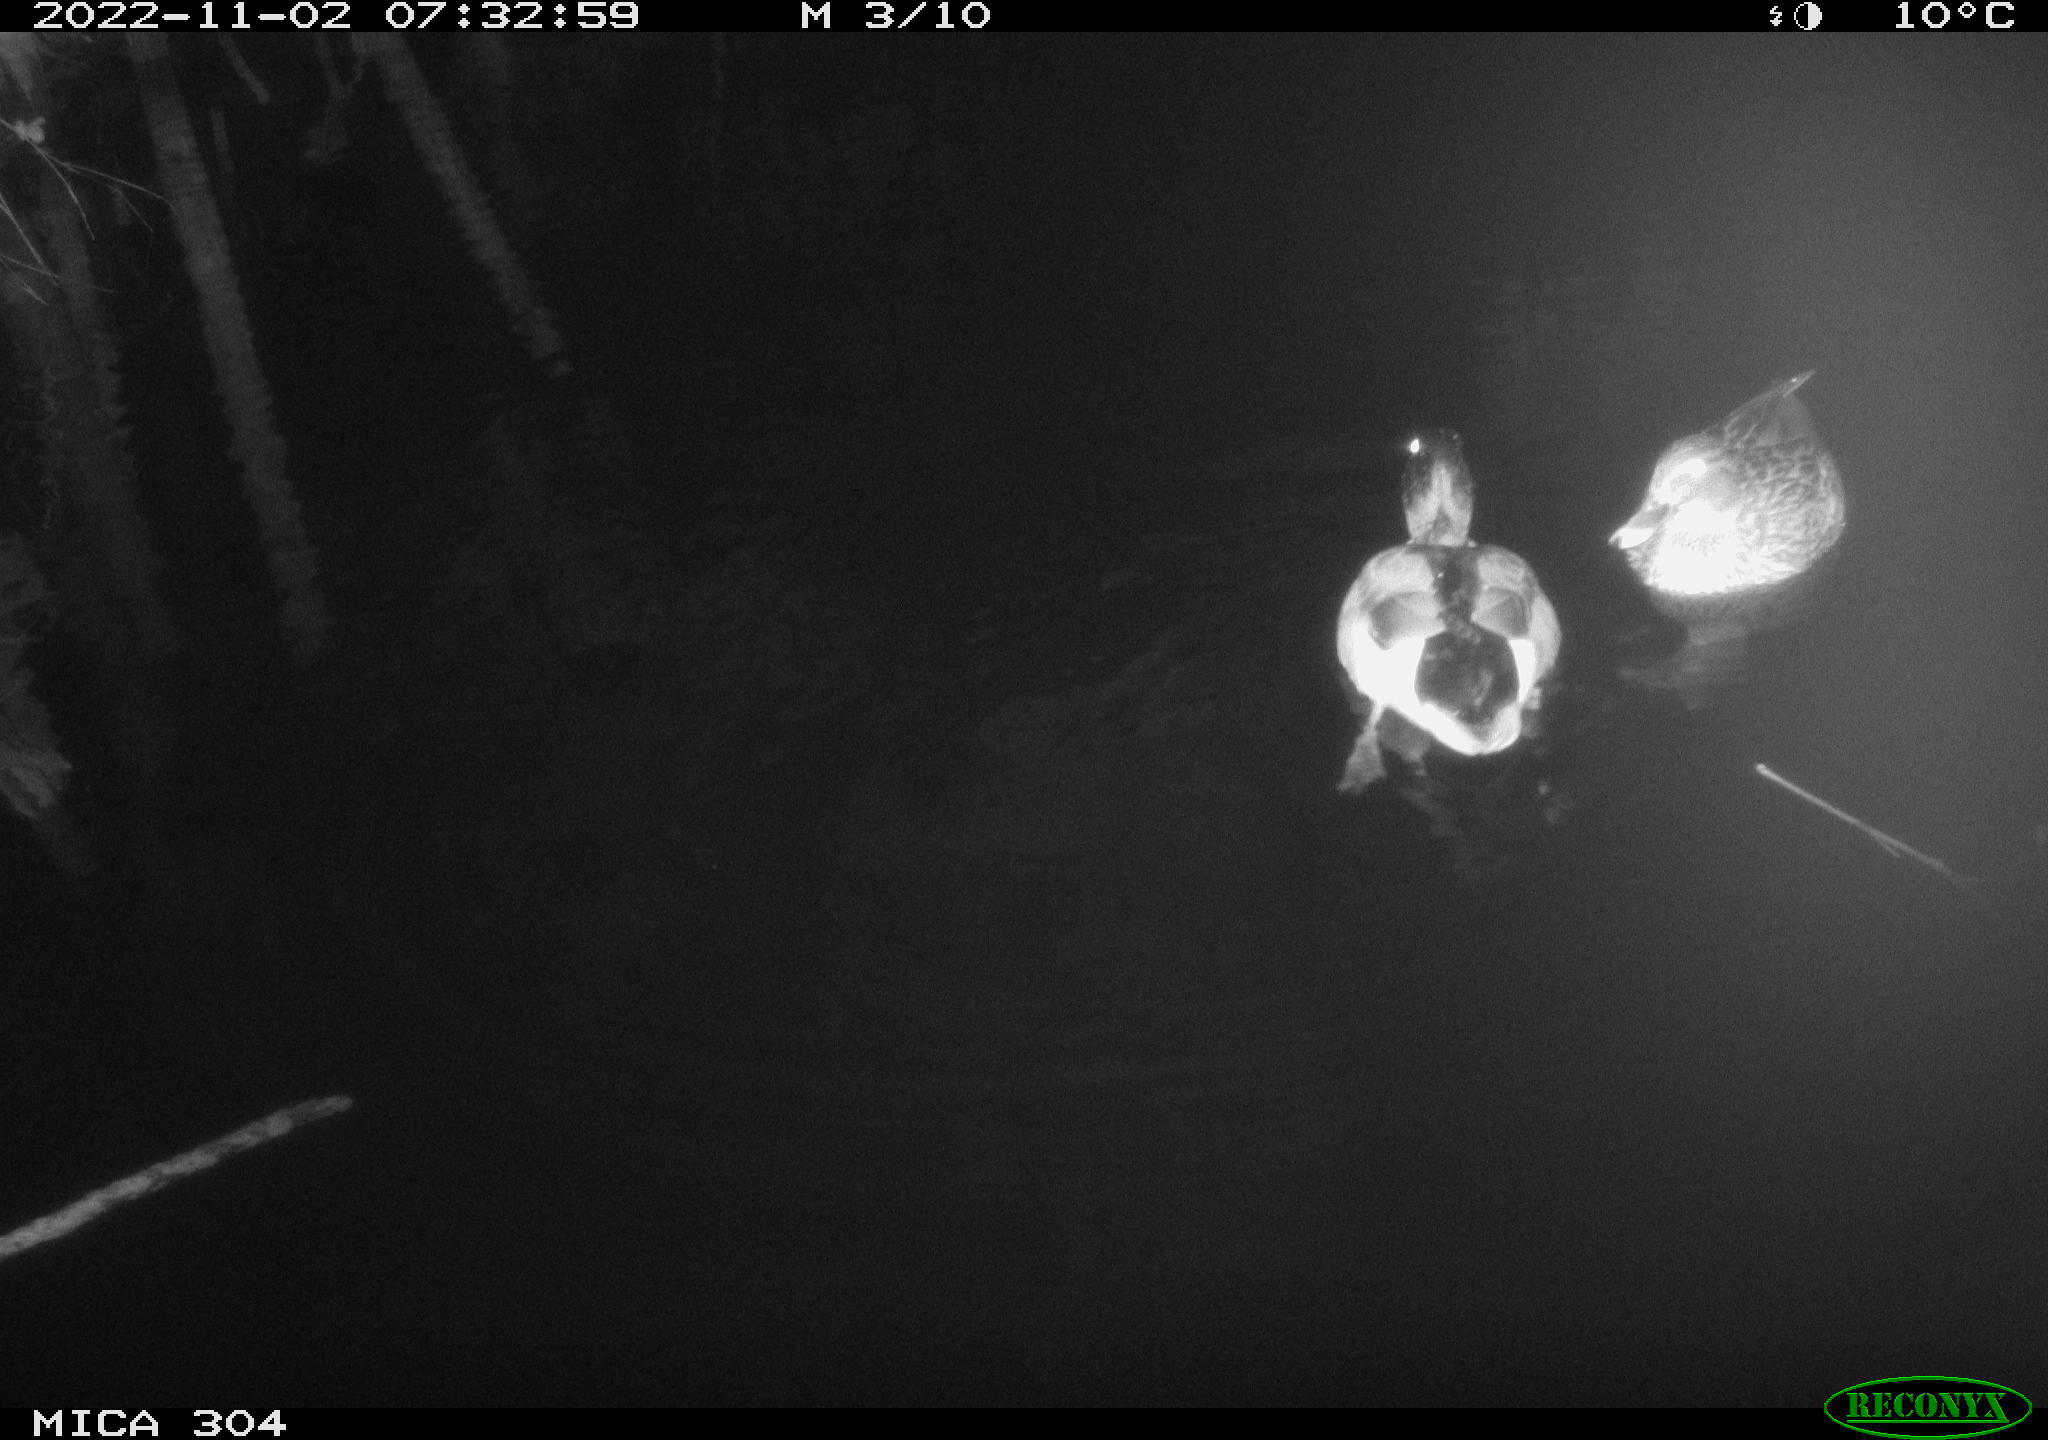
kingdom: Animalia
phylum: Chordata
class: Aves
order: Anseriformes
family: Anatidae
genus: Anas
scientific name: Anas
